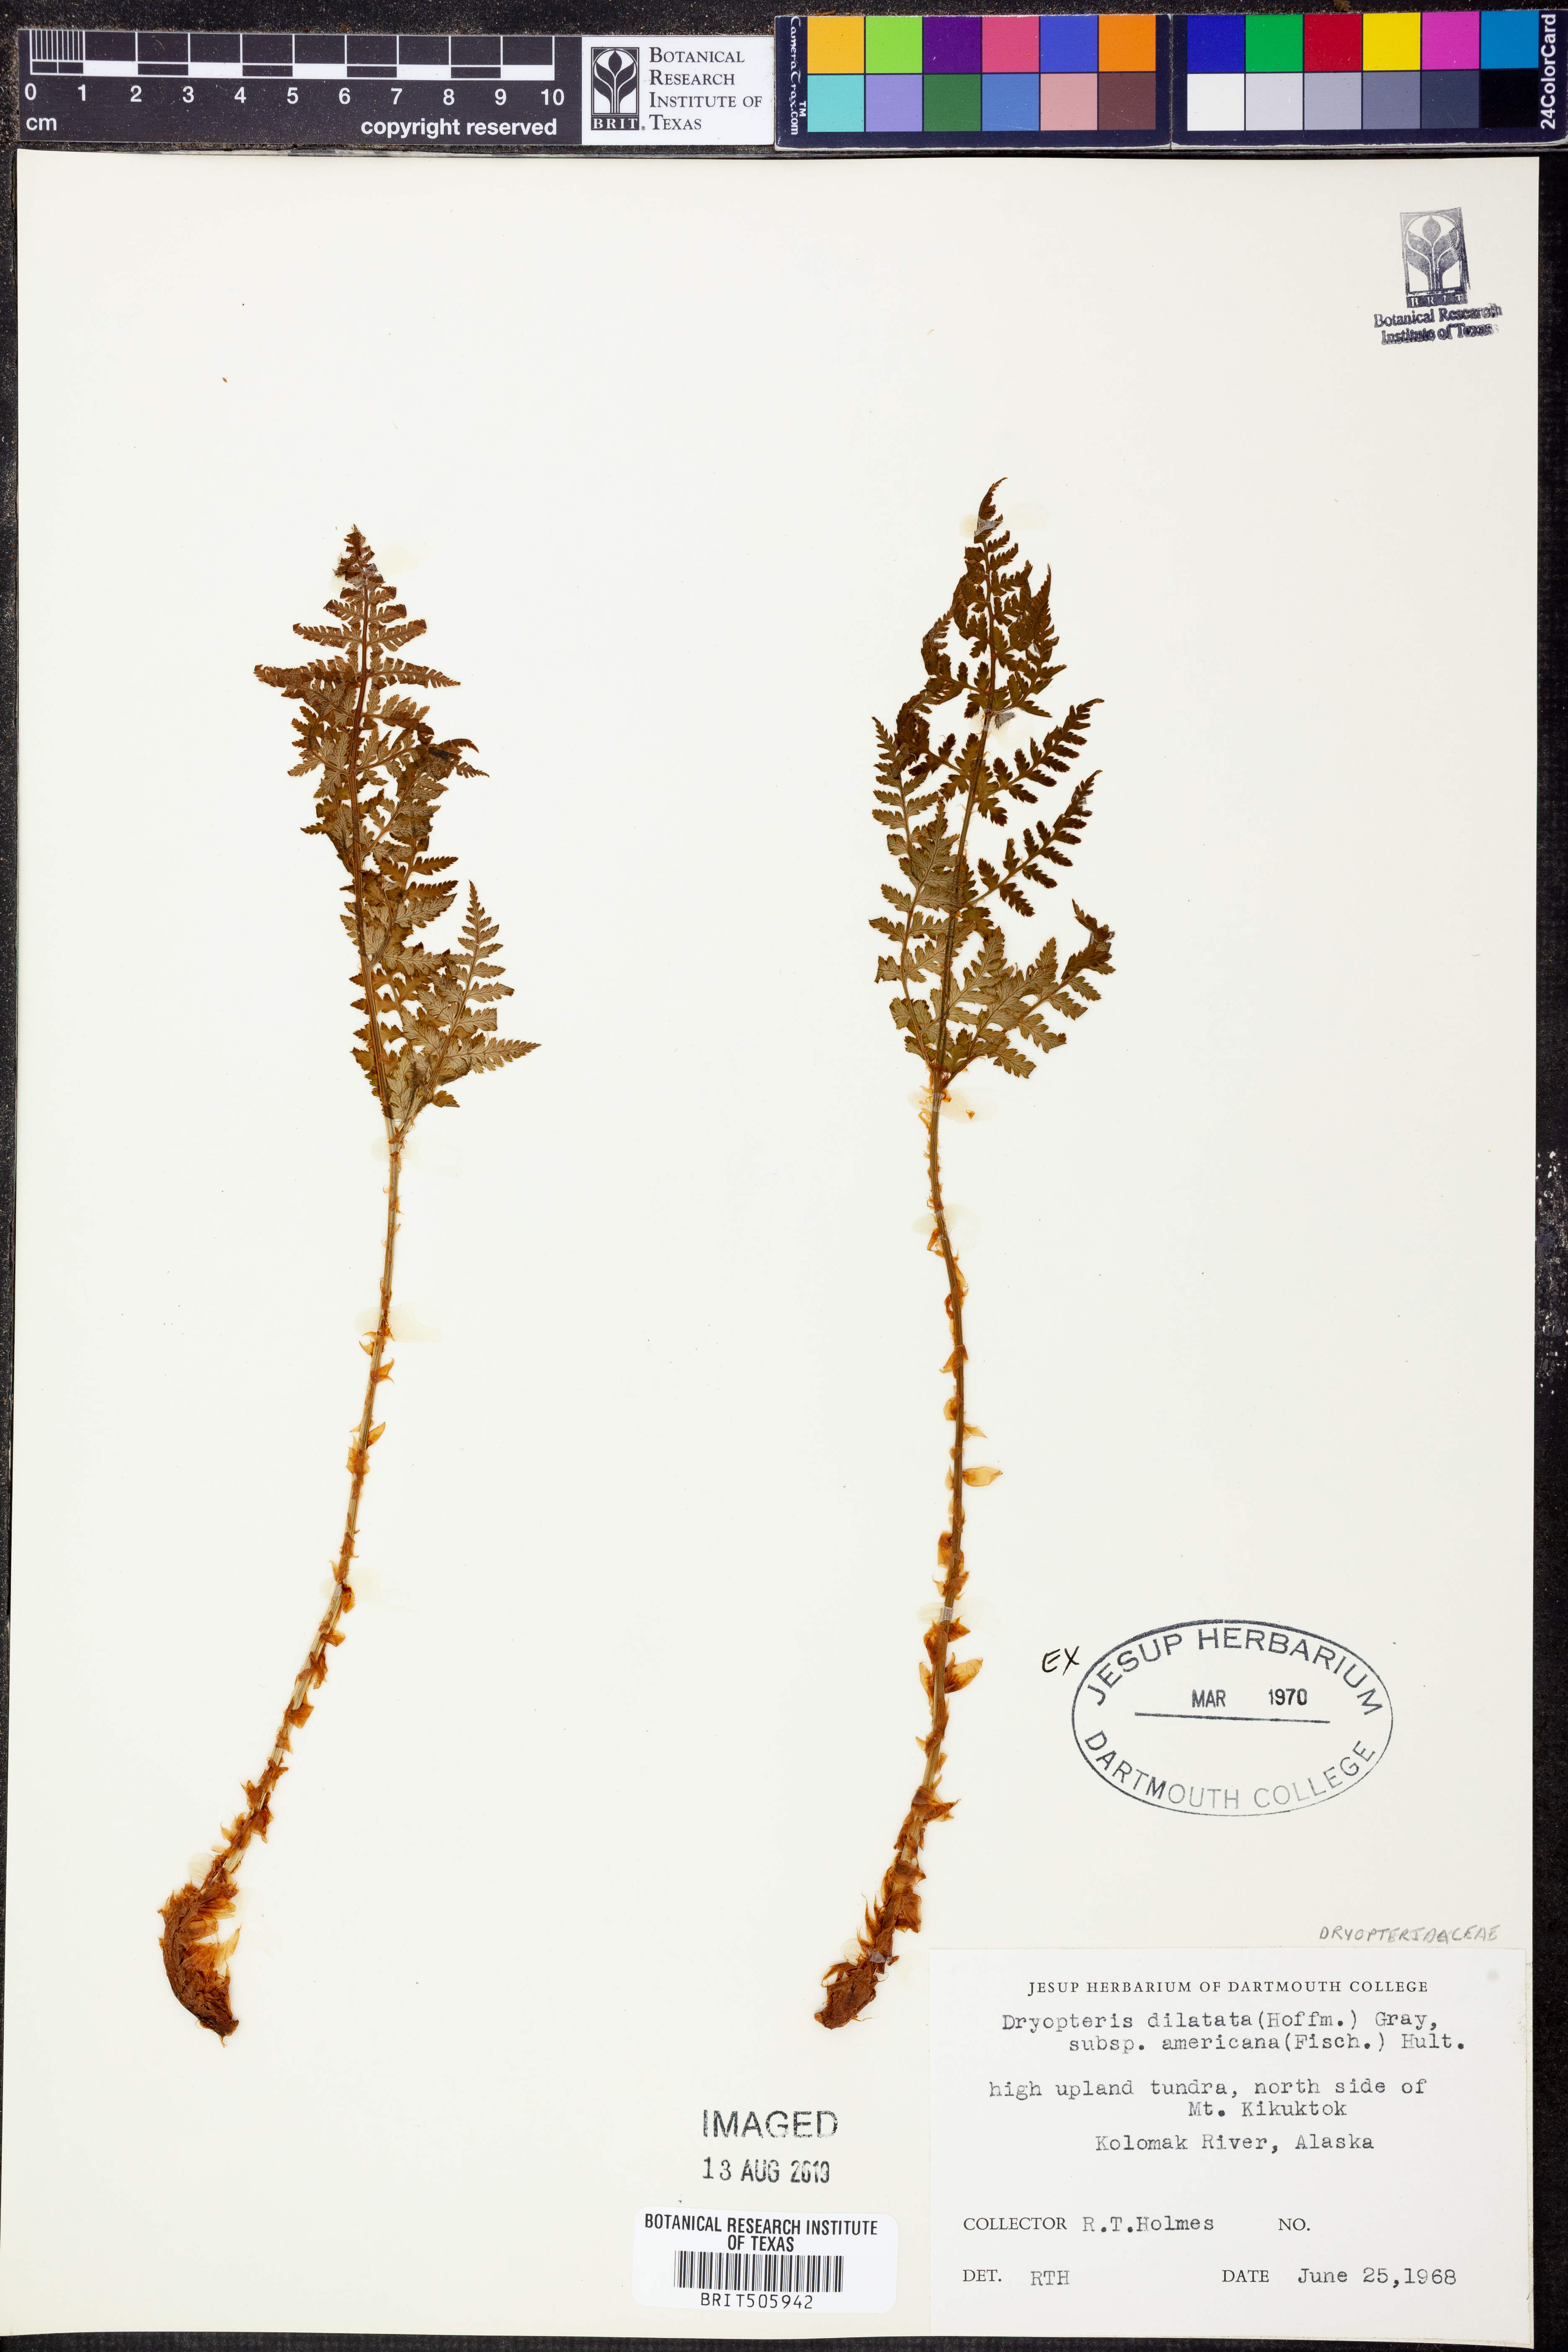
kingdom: Plantae
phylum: Tracheophyta
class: Polypodiopsida
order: Polypodiales
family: Dryopteridaceae
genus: Dryopteris
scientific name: Dryopteris campyloptera
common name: Mountain wood fern
